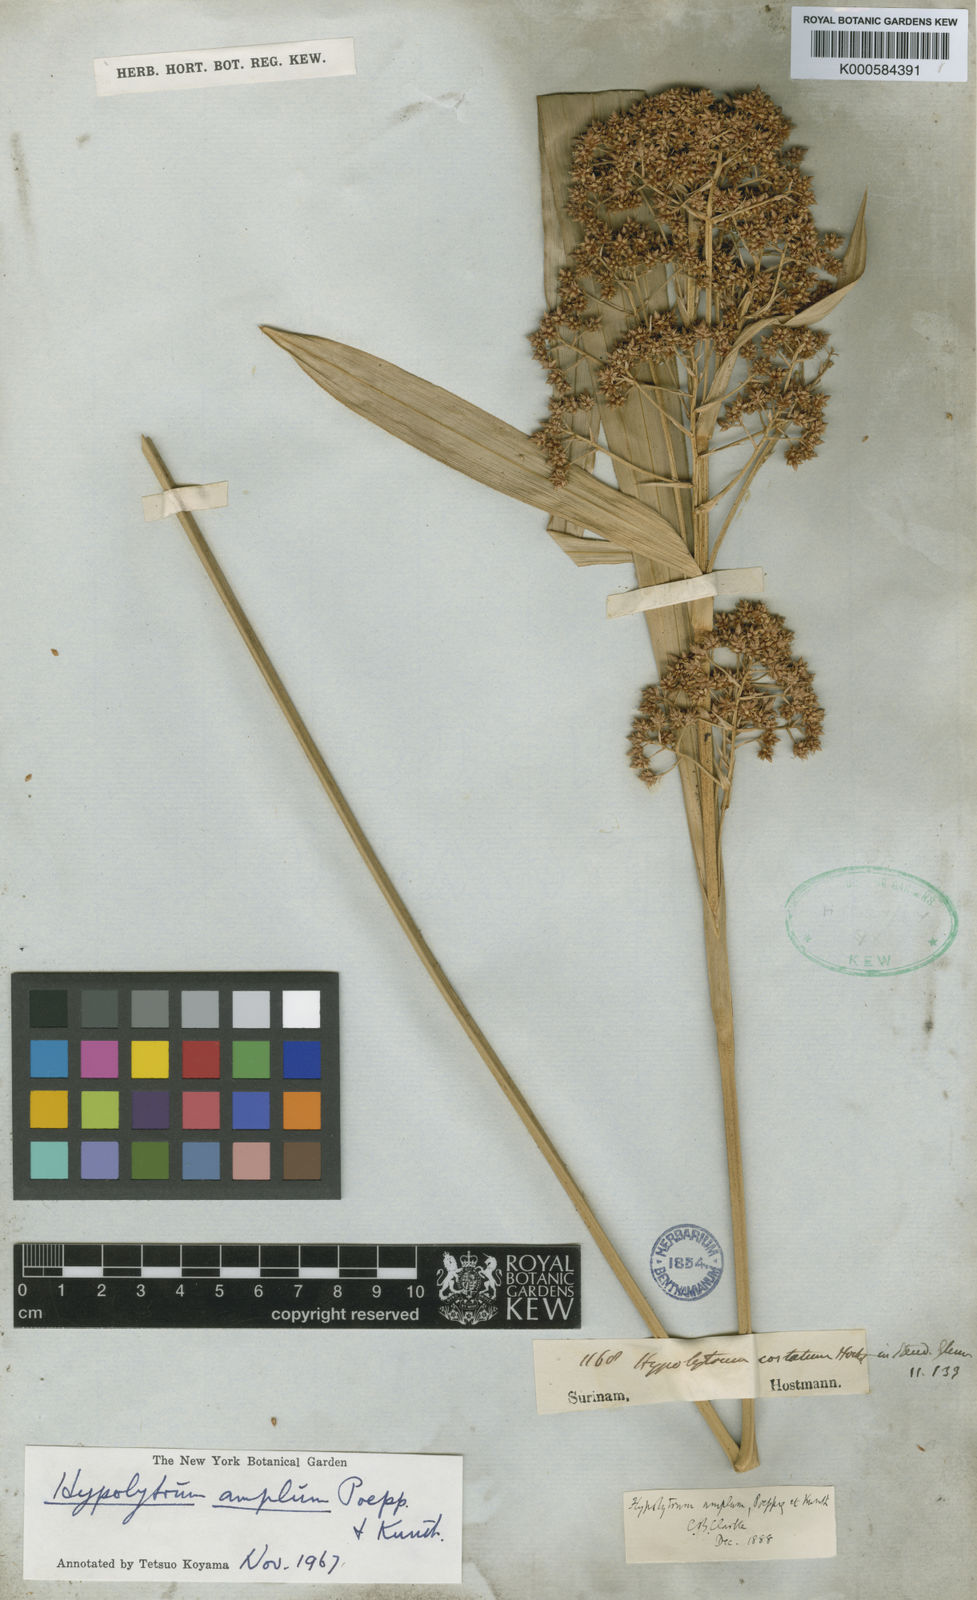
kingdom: Plantae
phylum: Tracheophyta
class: Liliopsida
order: Poales
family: Cyperaceae
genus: Hypolytrum
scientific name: Hypolytrum amplum
